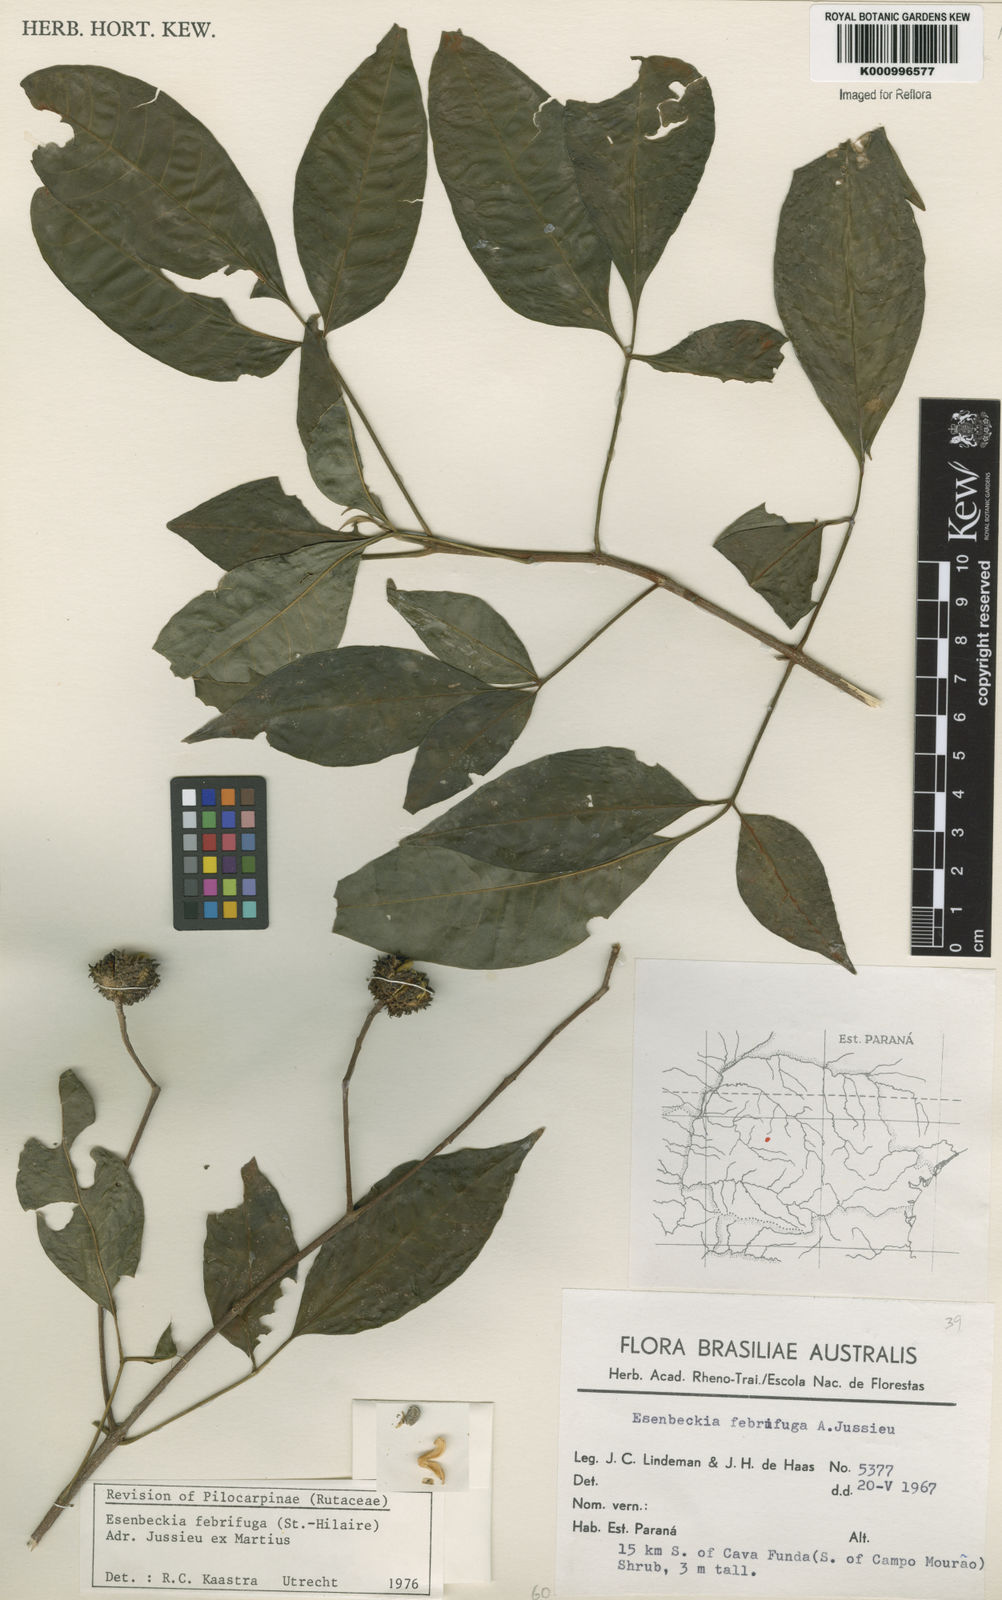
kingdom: Plantae
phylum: Tracheophyta
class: Magnoliopsida
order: Sapindales
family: Rutaceae
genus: Esenbeckia
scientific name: Esenbeckia febrifuga
